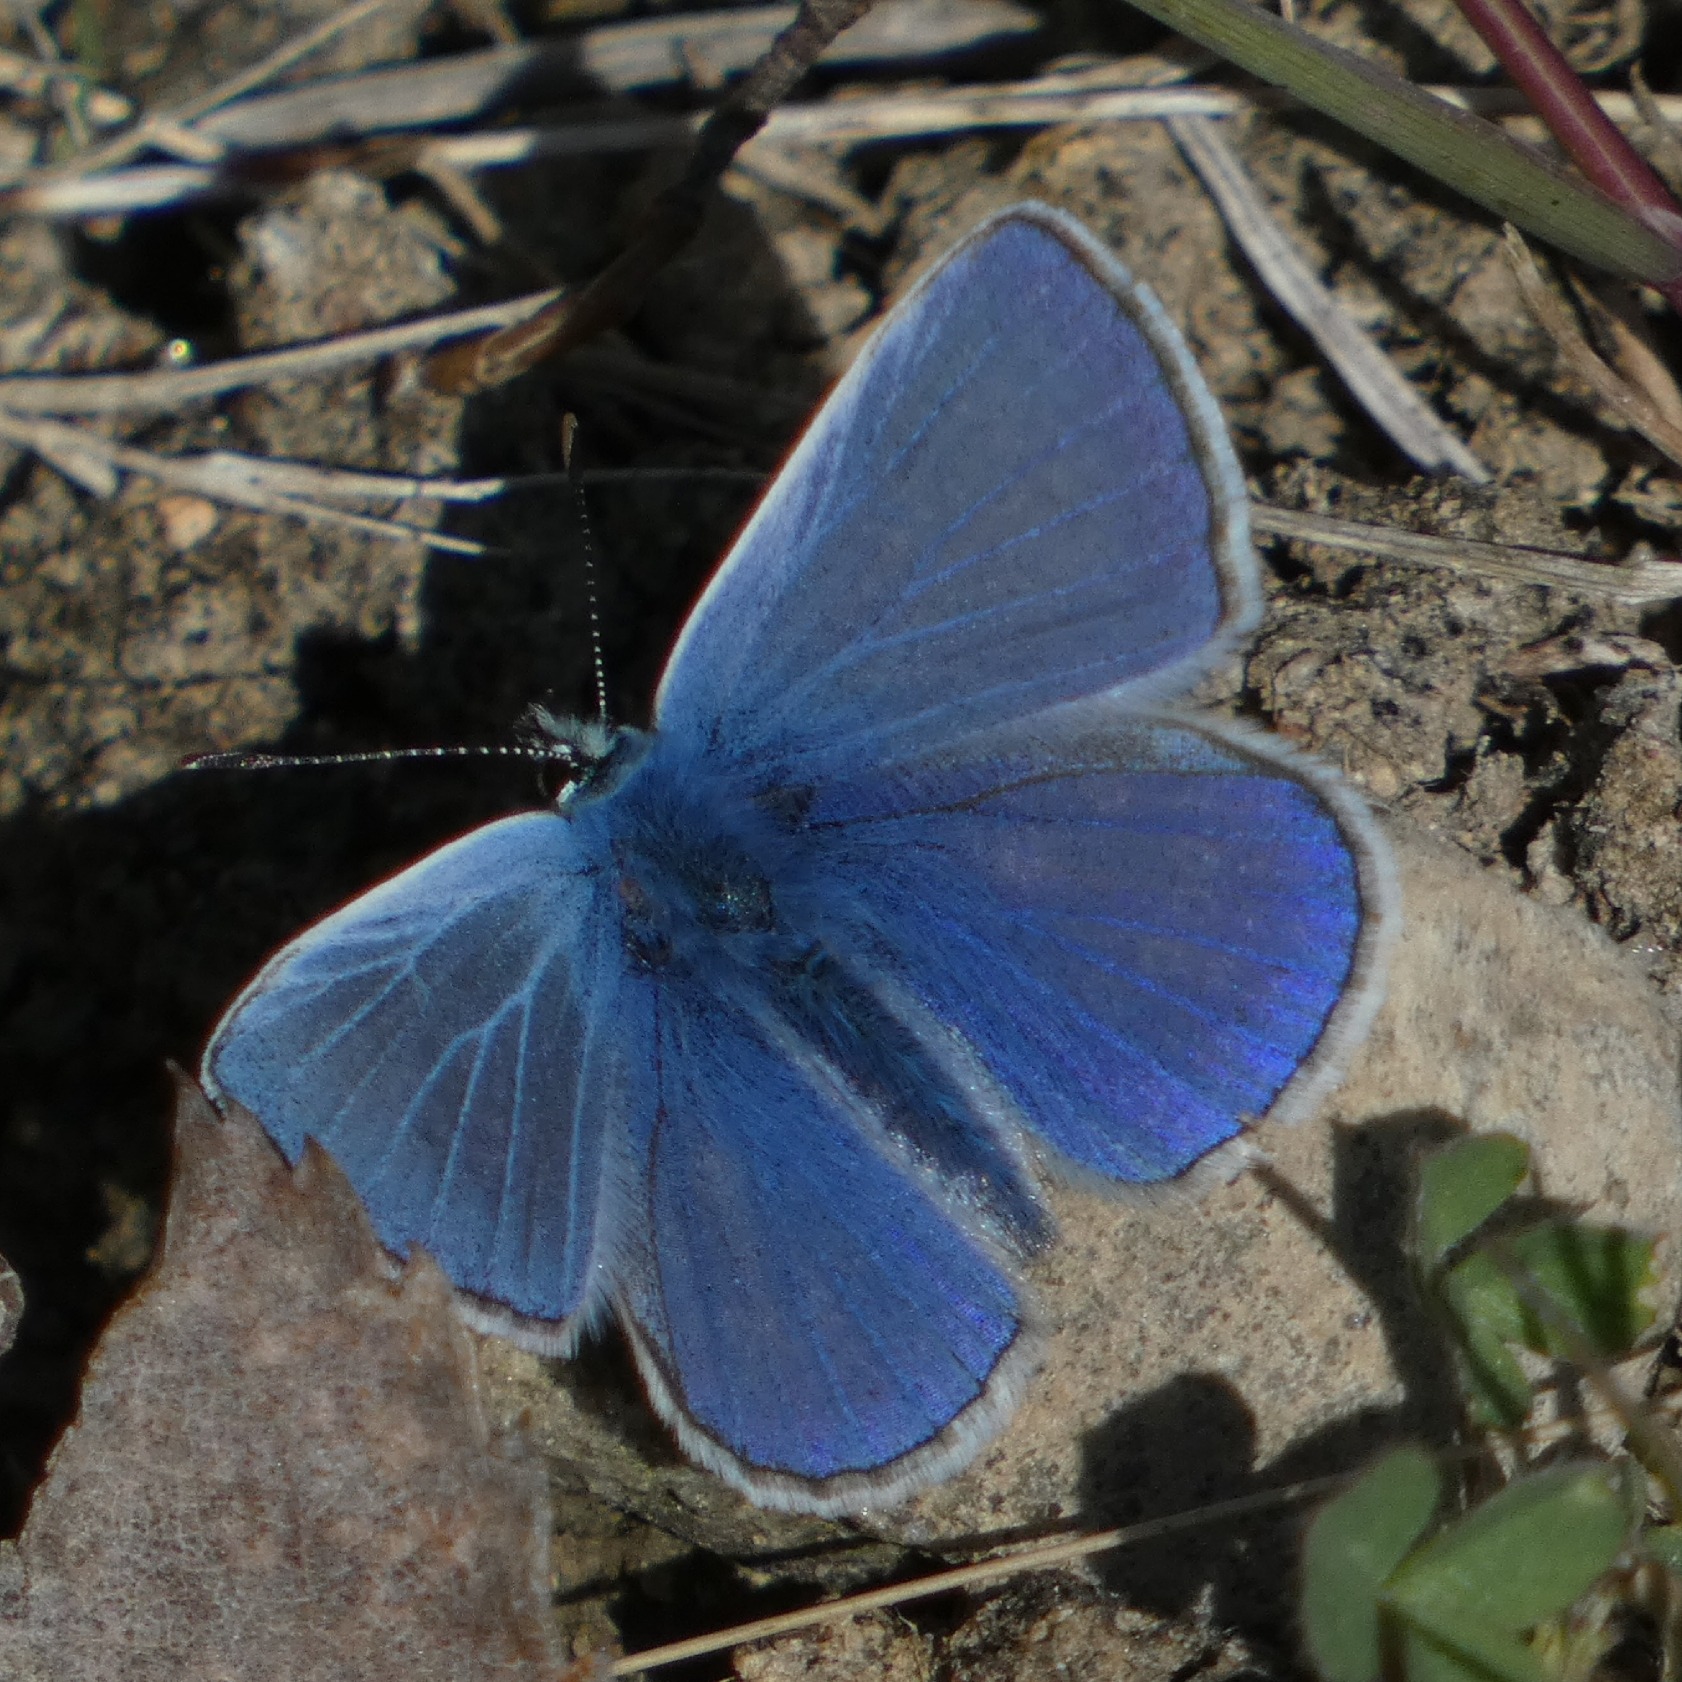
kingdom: Animalia
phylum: Arthropoda
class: Insecta
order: Lepidoptera
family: Lycaenidae
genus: Polyommatus
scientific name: Polyommatus icarus
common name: Almindelig blåfugl
